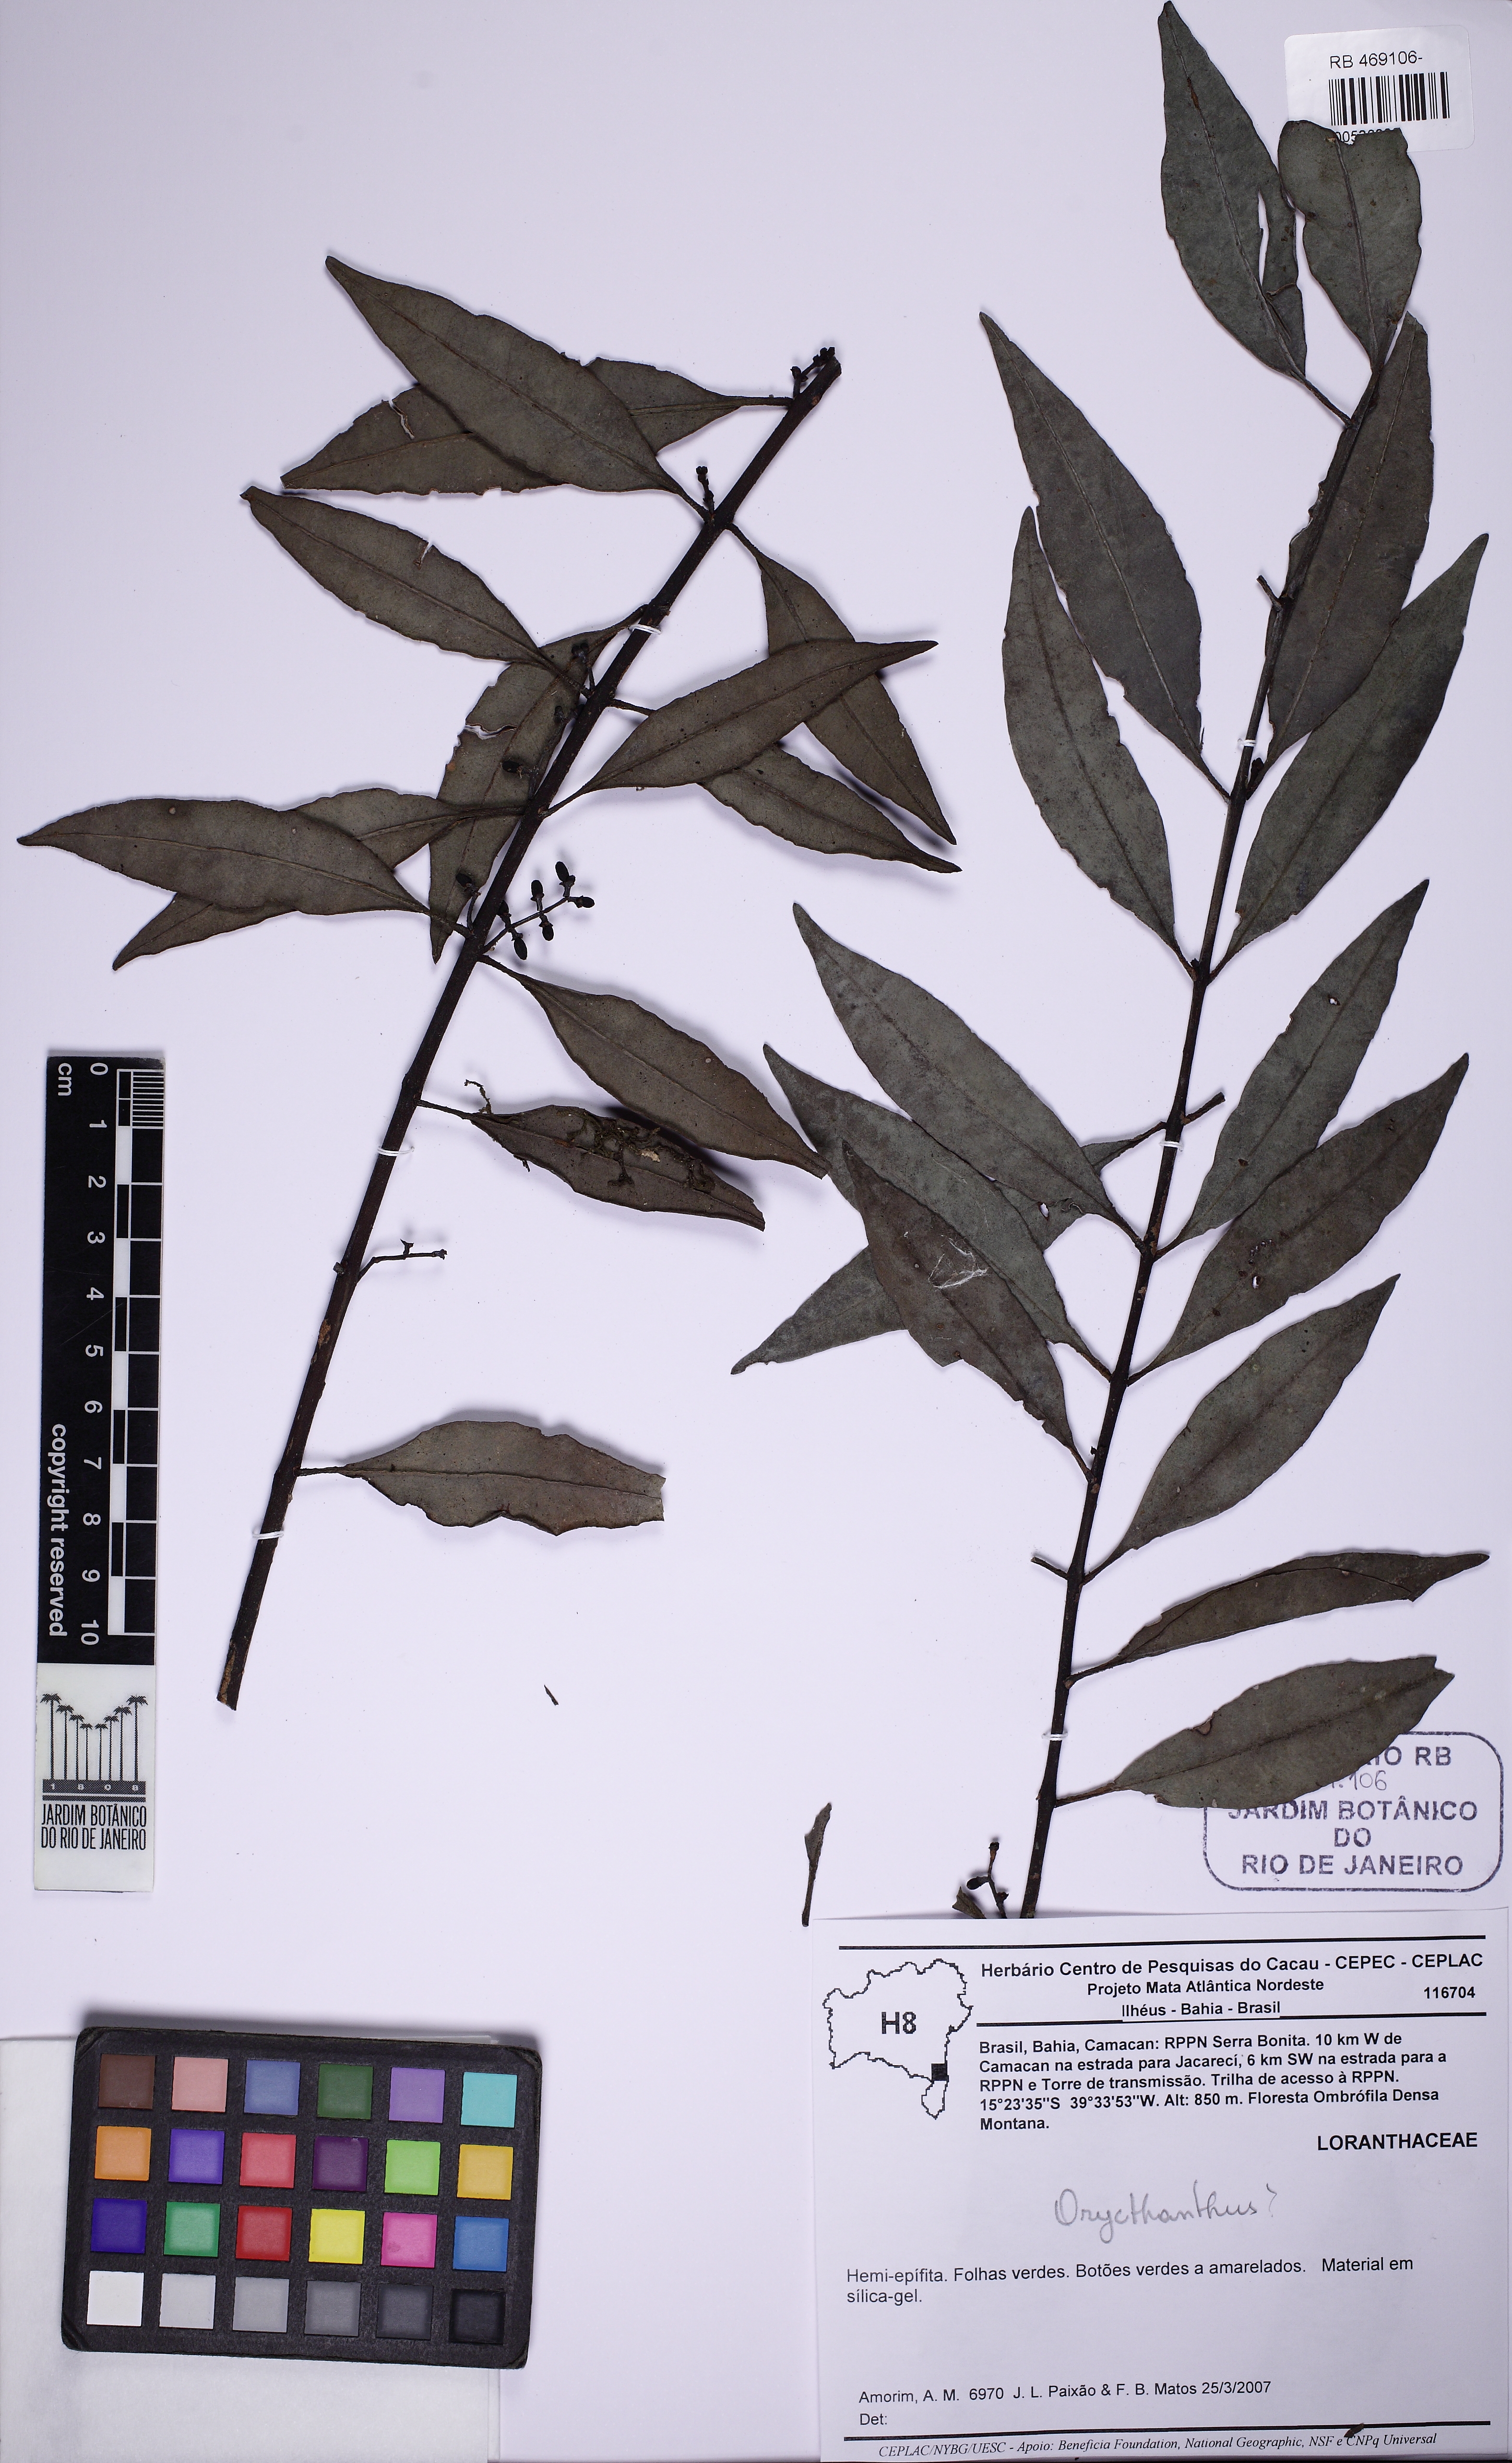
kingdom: Plantae
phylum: Tracheophyta
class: Magnoliopsida
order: Santalales
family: Loranthaceae
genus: Struthanthus
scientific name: Struthanthus salicifolius
